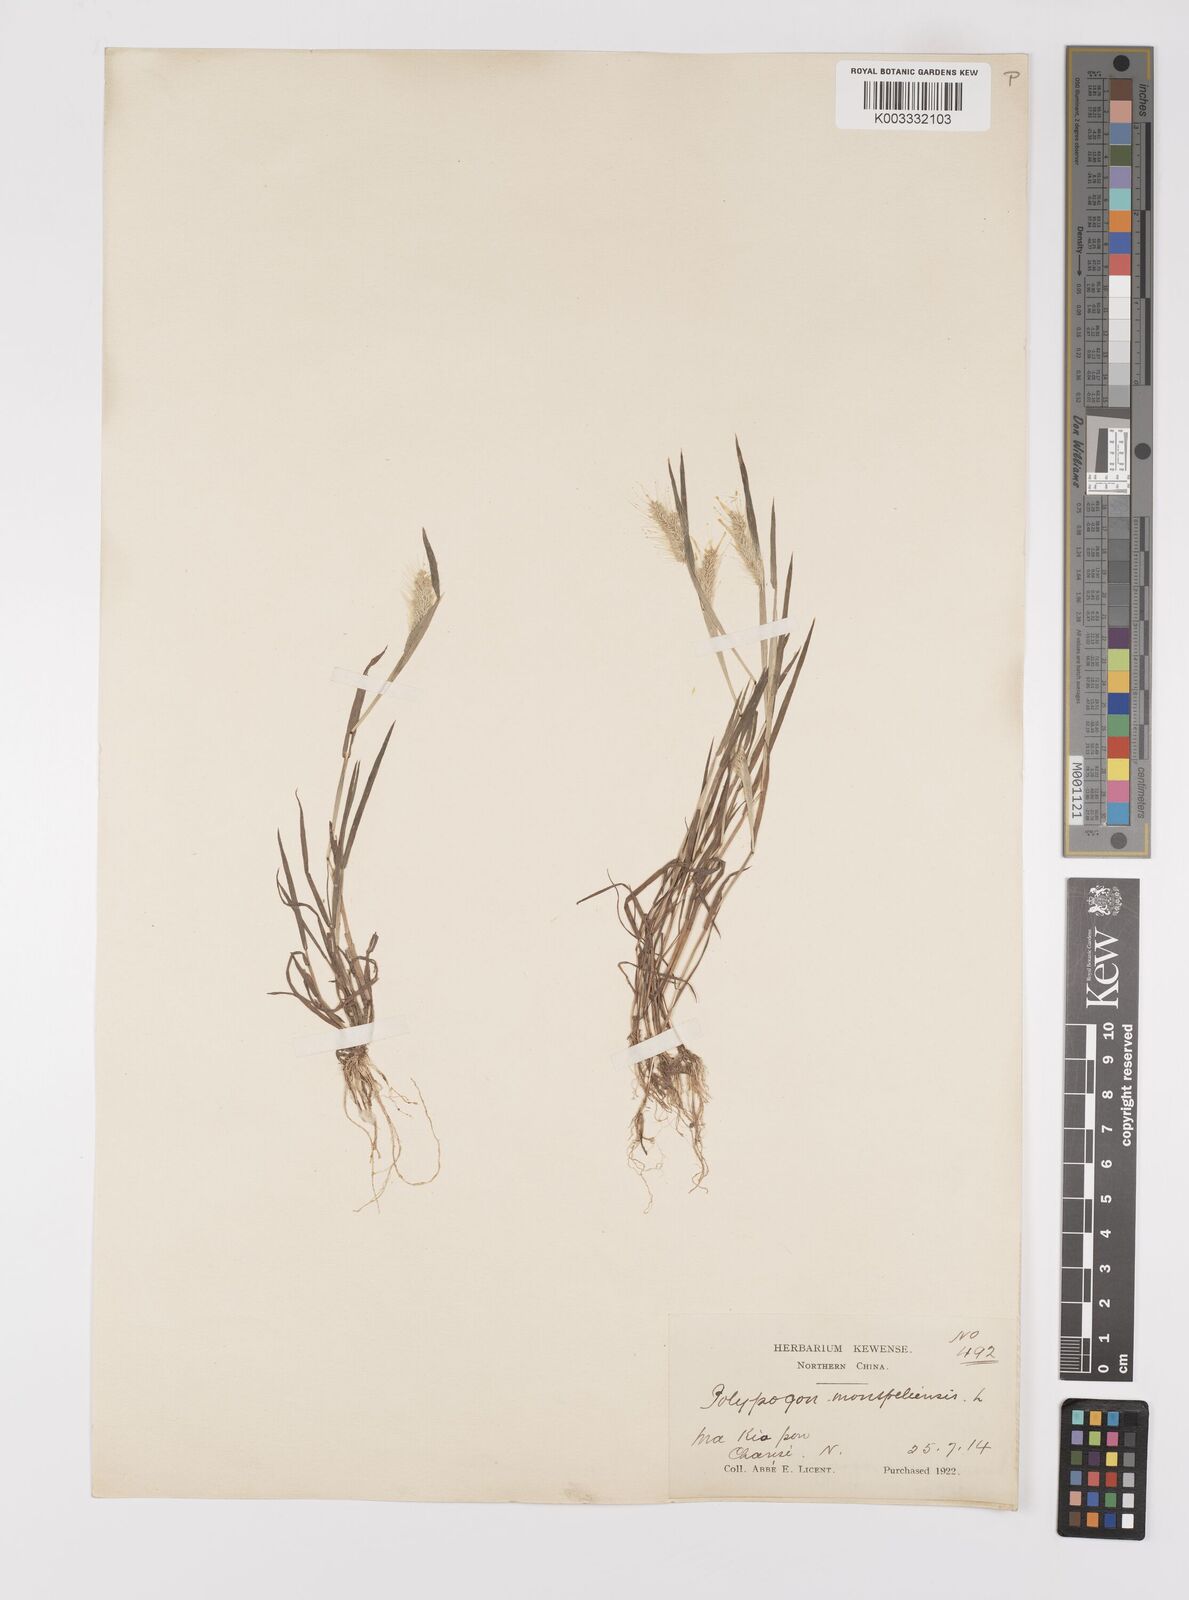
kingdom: Plantae
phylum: Tracheophyta
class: Liliopsida
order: Poales
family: Poaceae
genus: Polypogon
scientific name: Polypogon monspeliensis
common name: Annual rabbitsfoot grass
